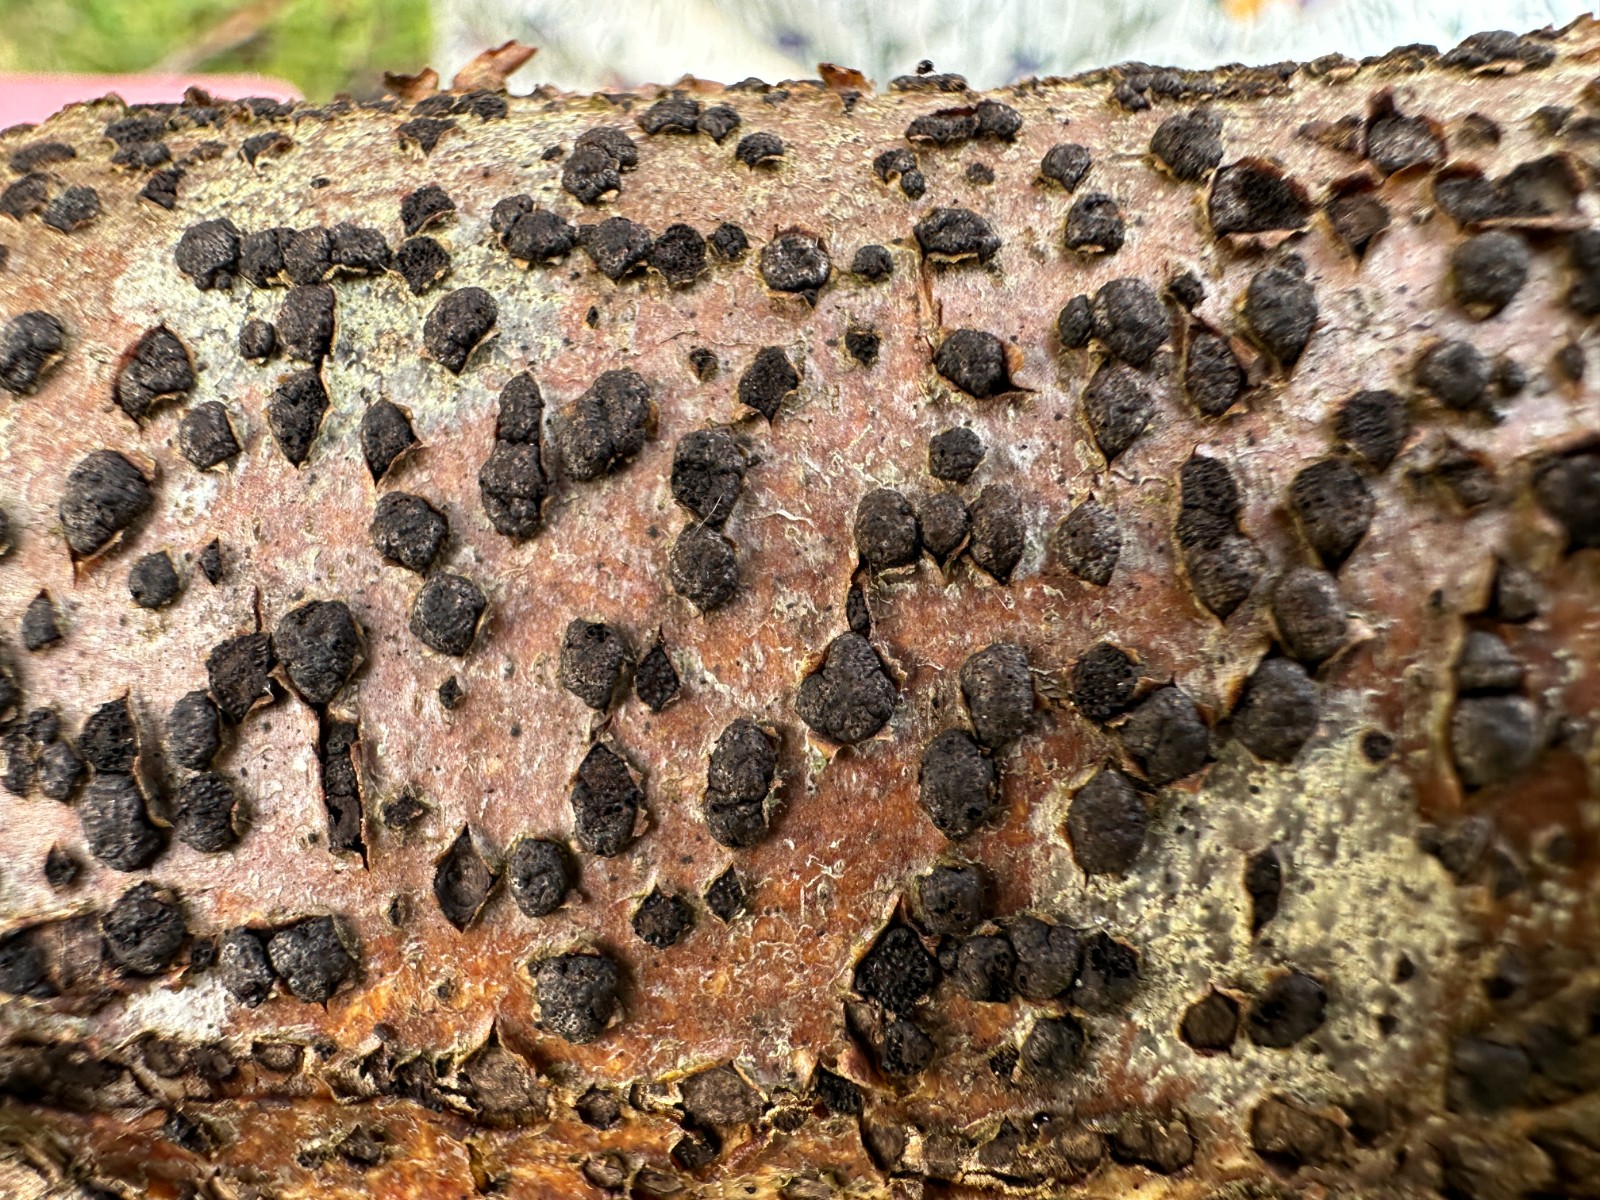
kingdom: Fungi
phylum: Ascomycota
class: Sordariomycetes
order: Xylariales
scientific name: Xylariales
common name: stødsvampordenen
